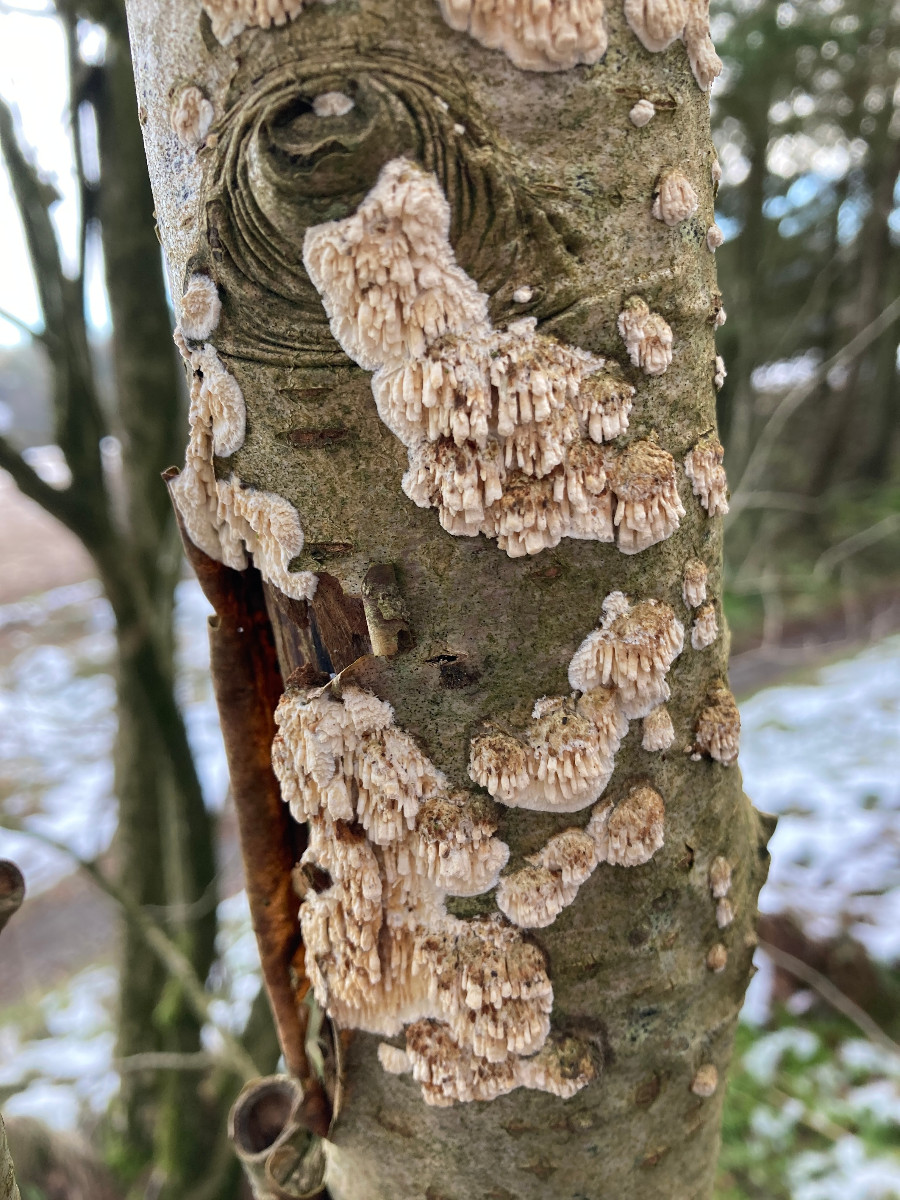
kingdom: Fungi
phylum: Basidiomycota
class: Agaricomycetes
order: Hymenochaetales
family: Schizoporaceae
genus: Xylodon
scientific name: Xylodon radula
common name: grovtandet kalkskind
